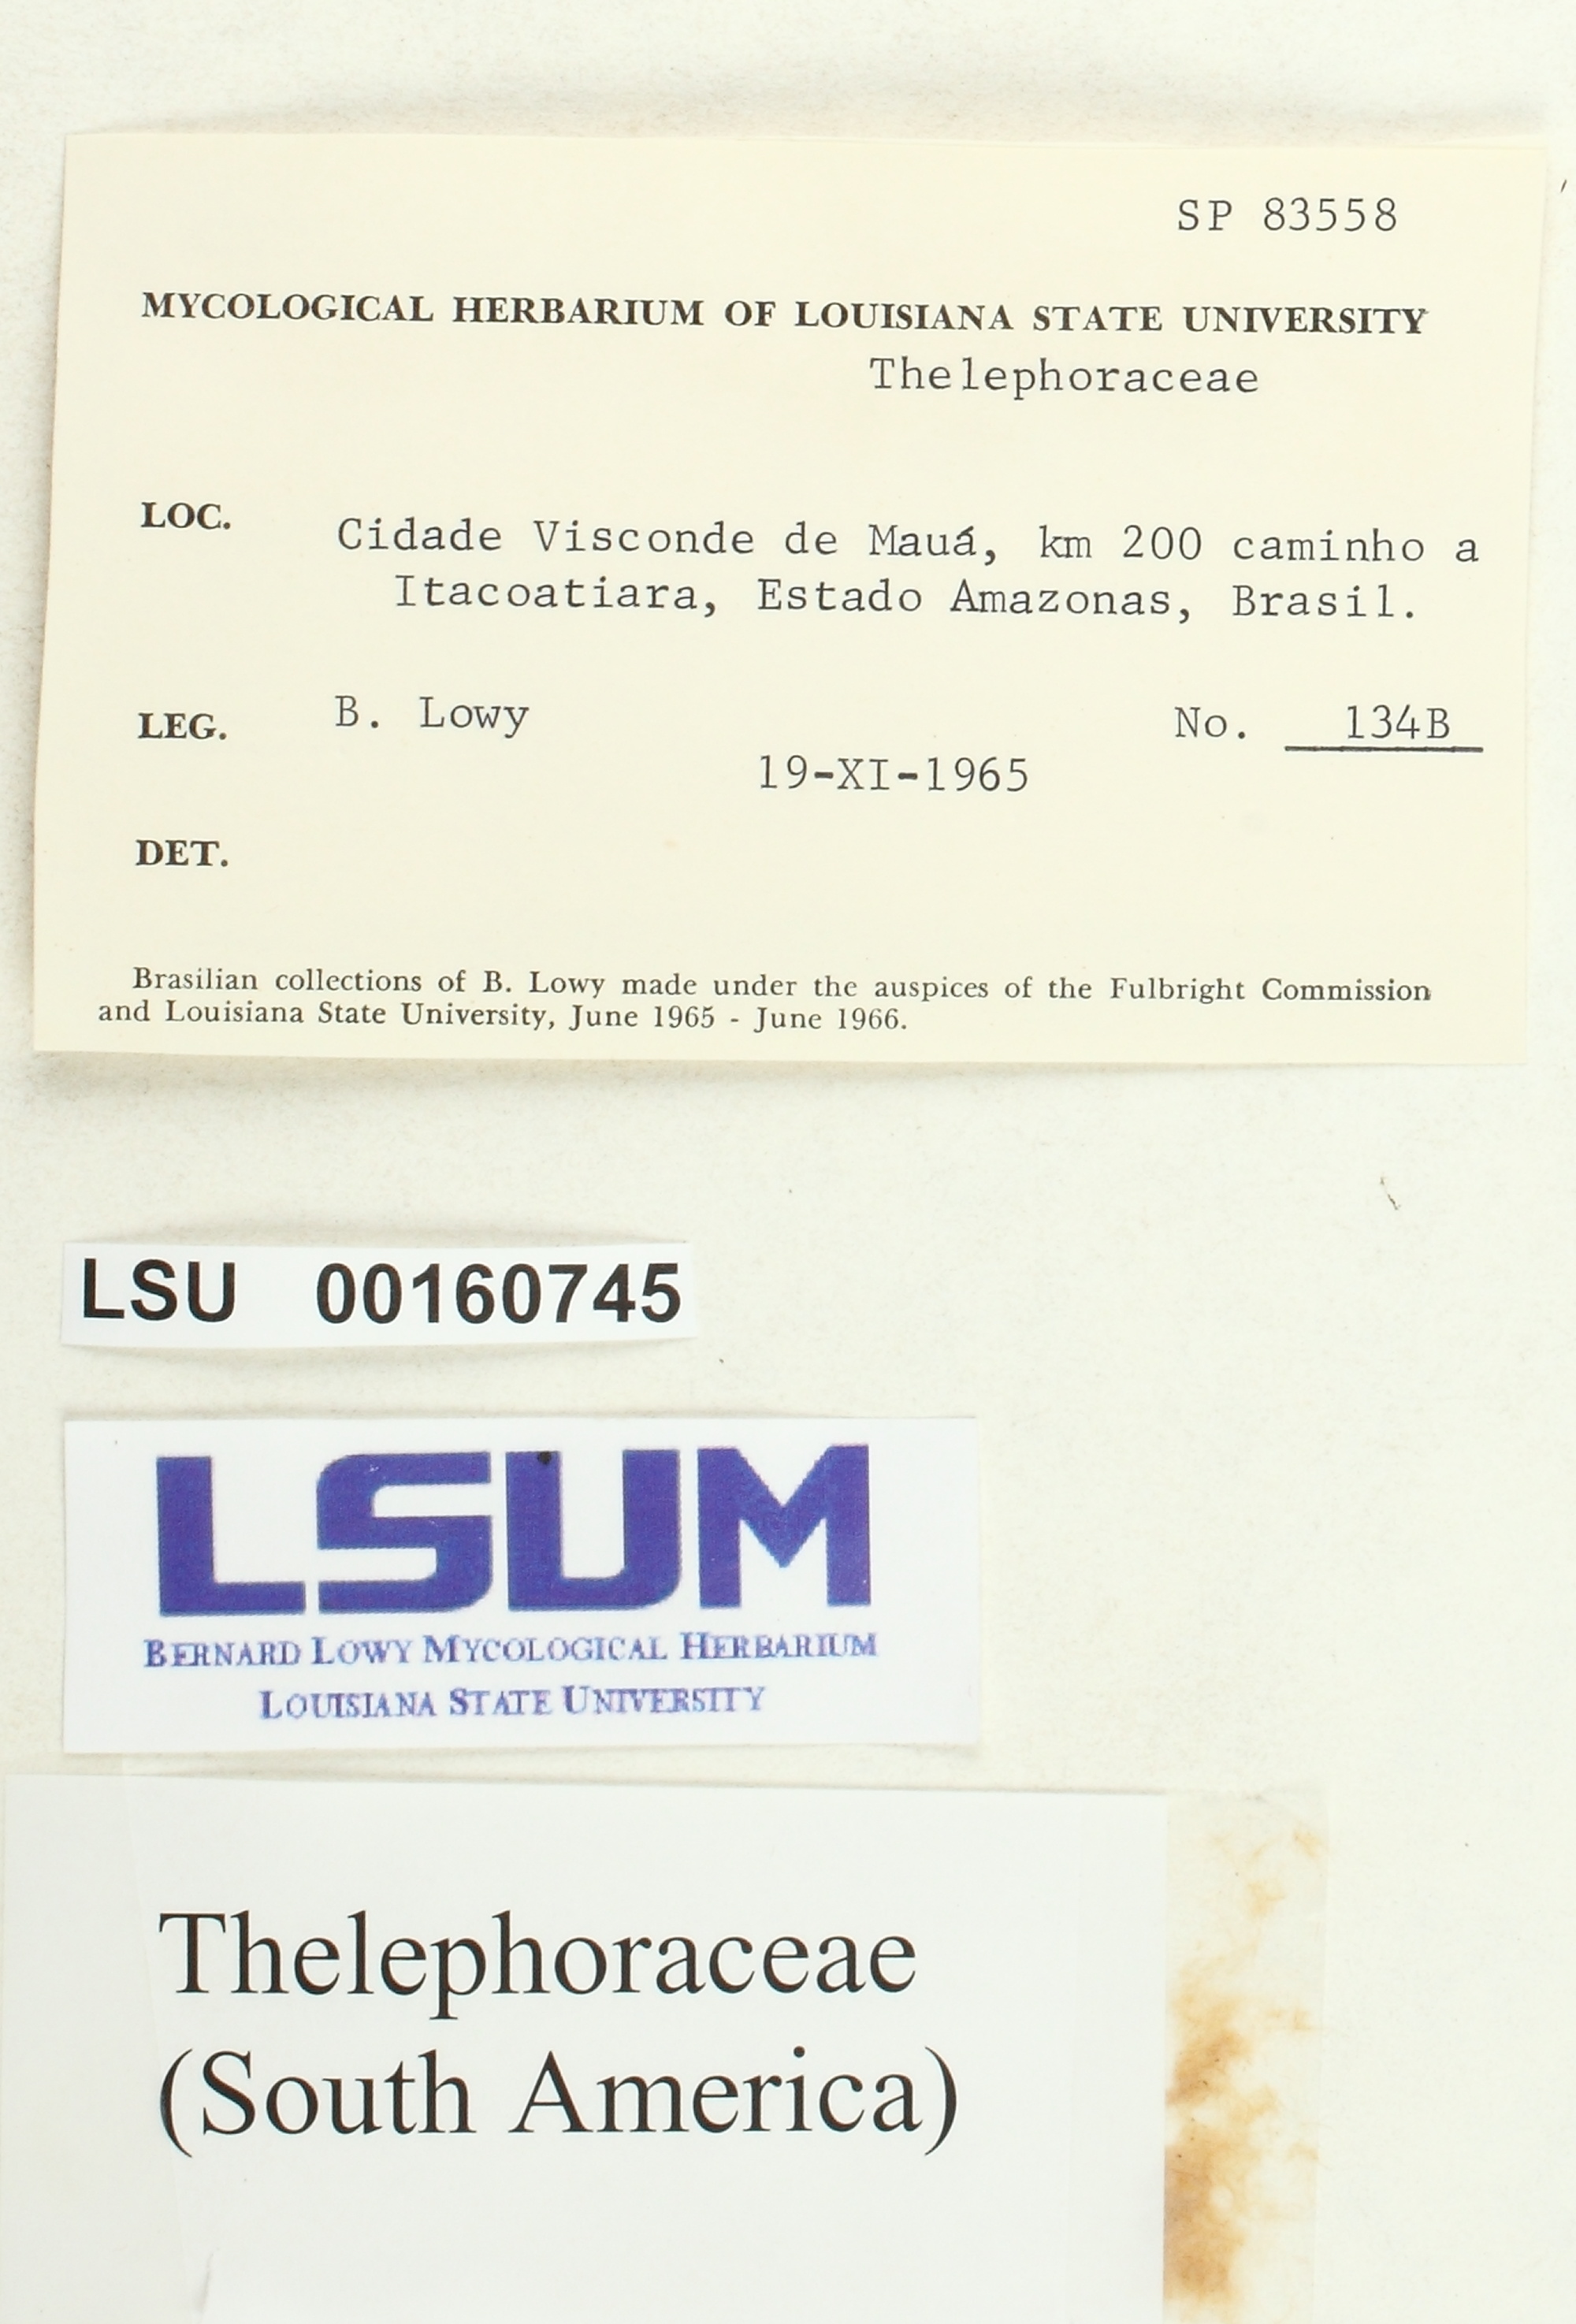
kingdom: Fungi
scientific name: Fungi
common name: Fungi
